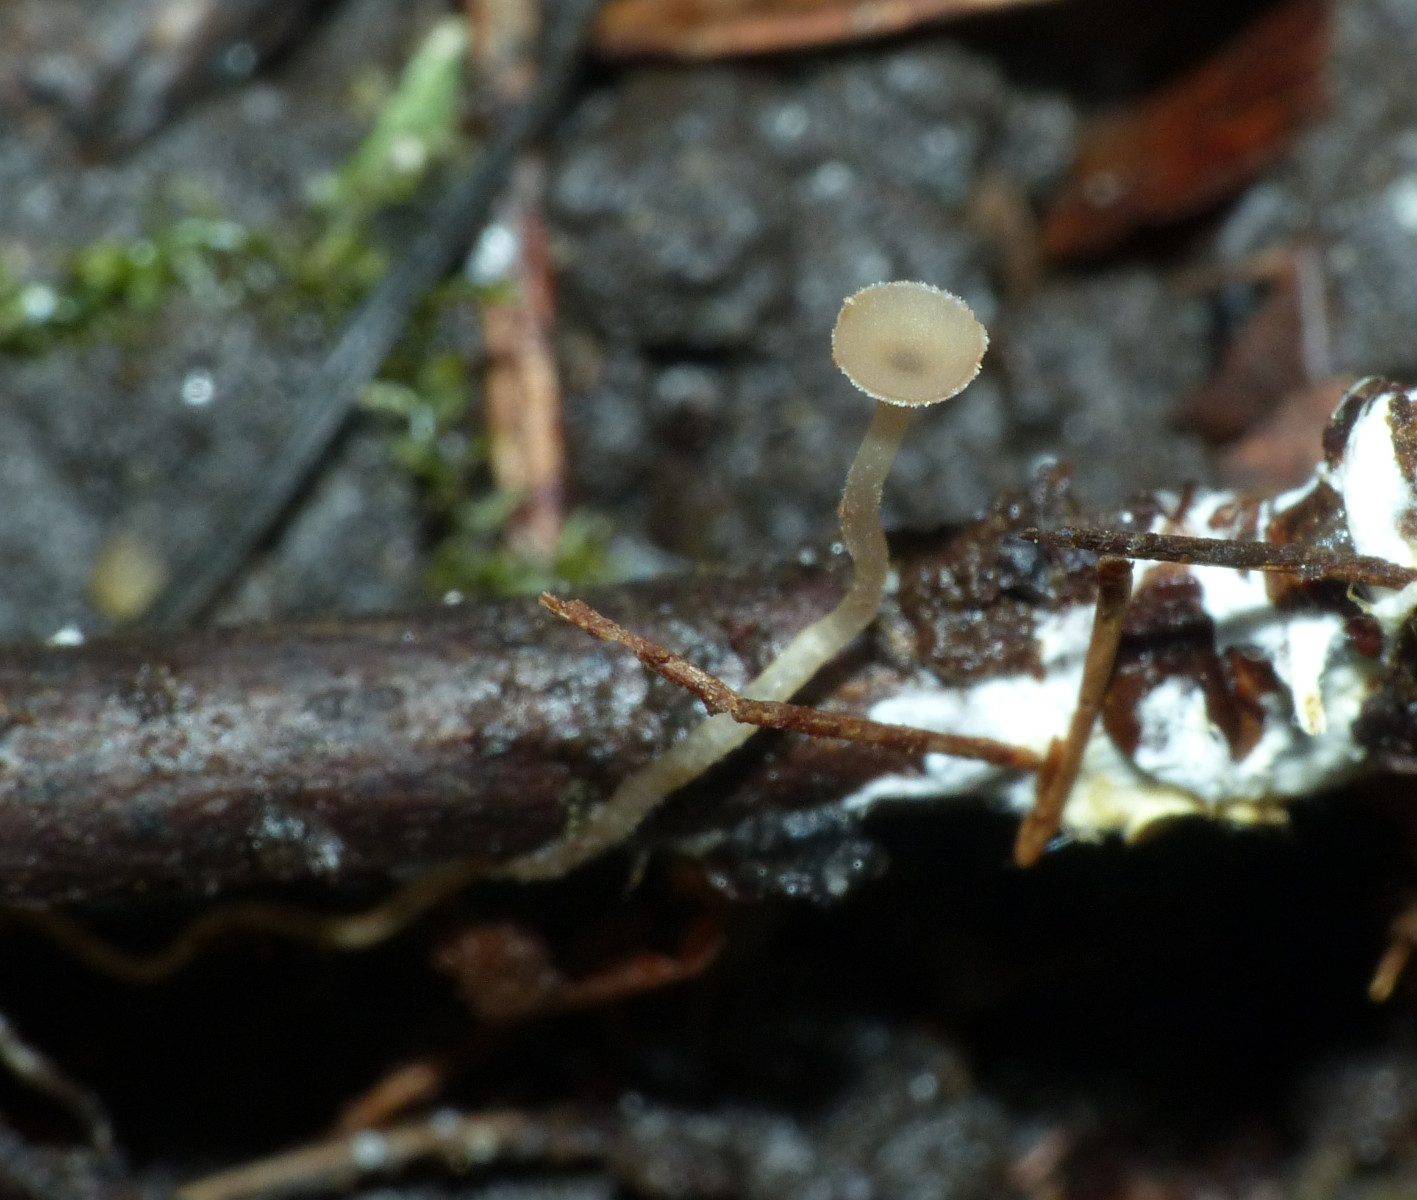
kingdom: Fungi
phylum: Ascomycota
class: Leotiomycetes
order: Helotiales
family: Sclerotiniaceae
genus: Ciboria
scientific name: Ciboria
